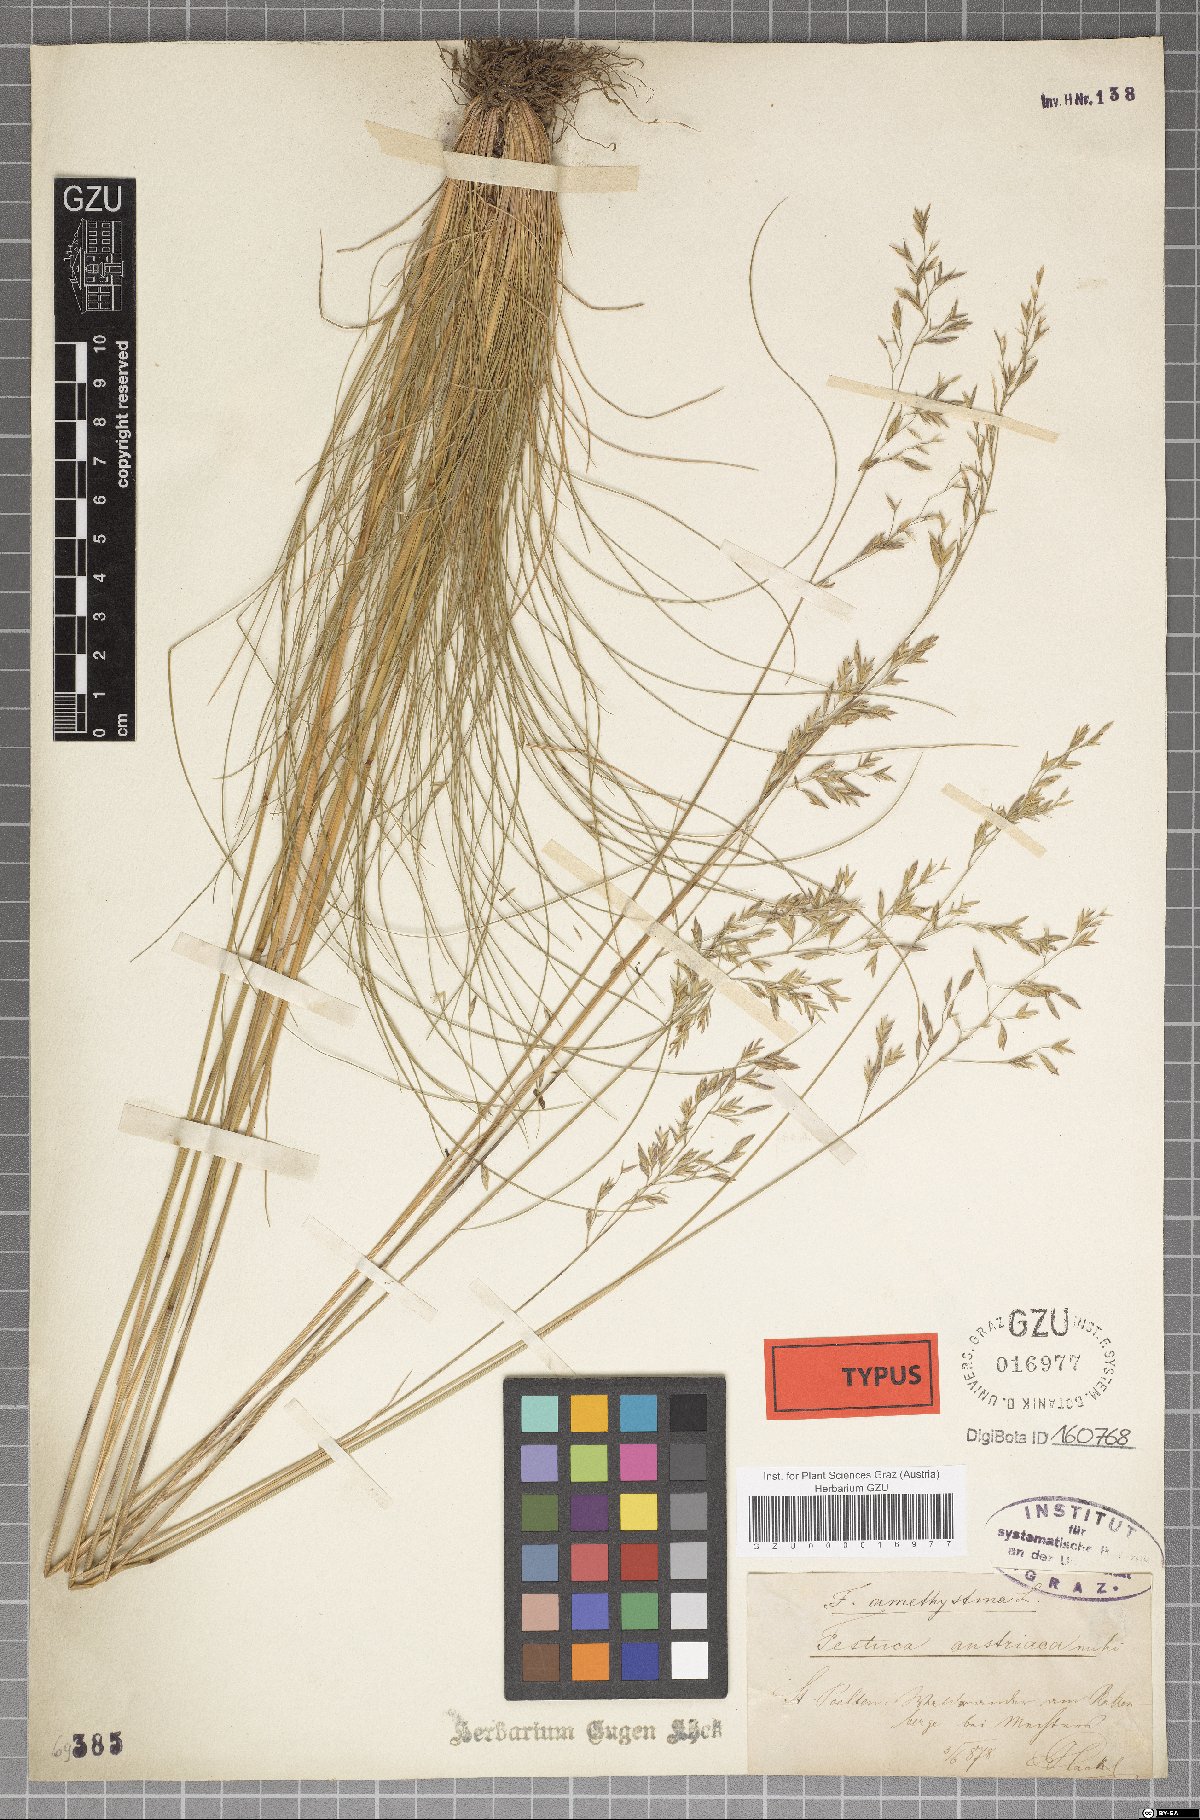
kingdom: Plantae
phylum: Tracheophyta
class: Liliopsida
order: Poales
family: Poaceae
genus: Festuca
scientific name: Festuca amethystina
